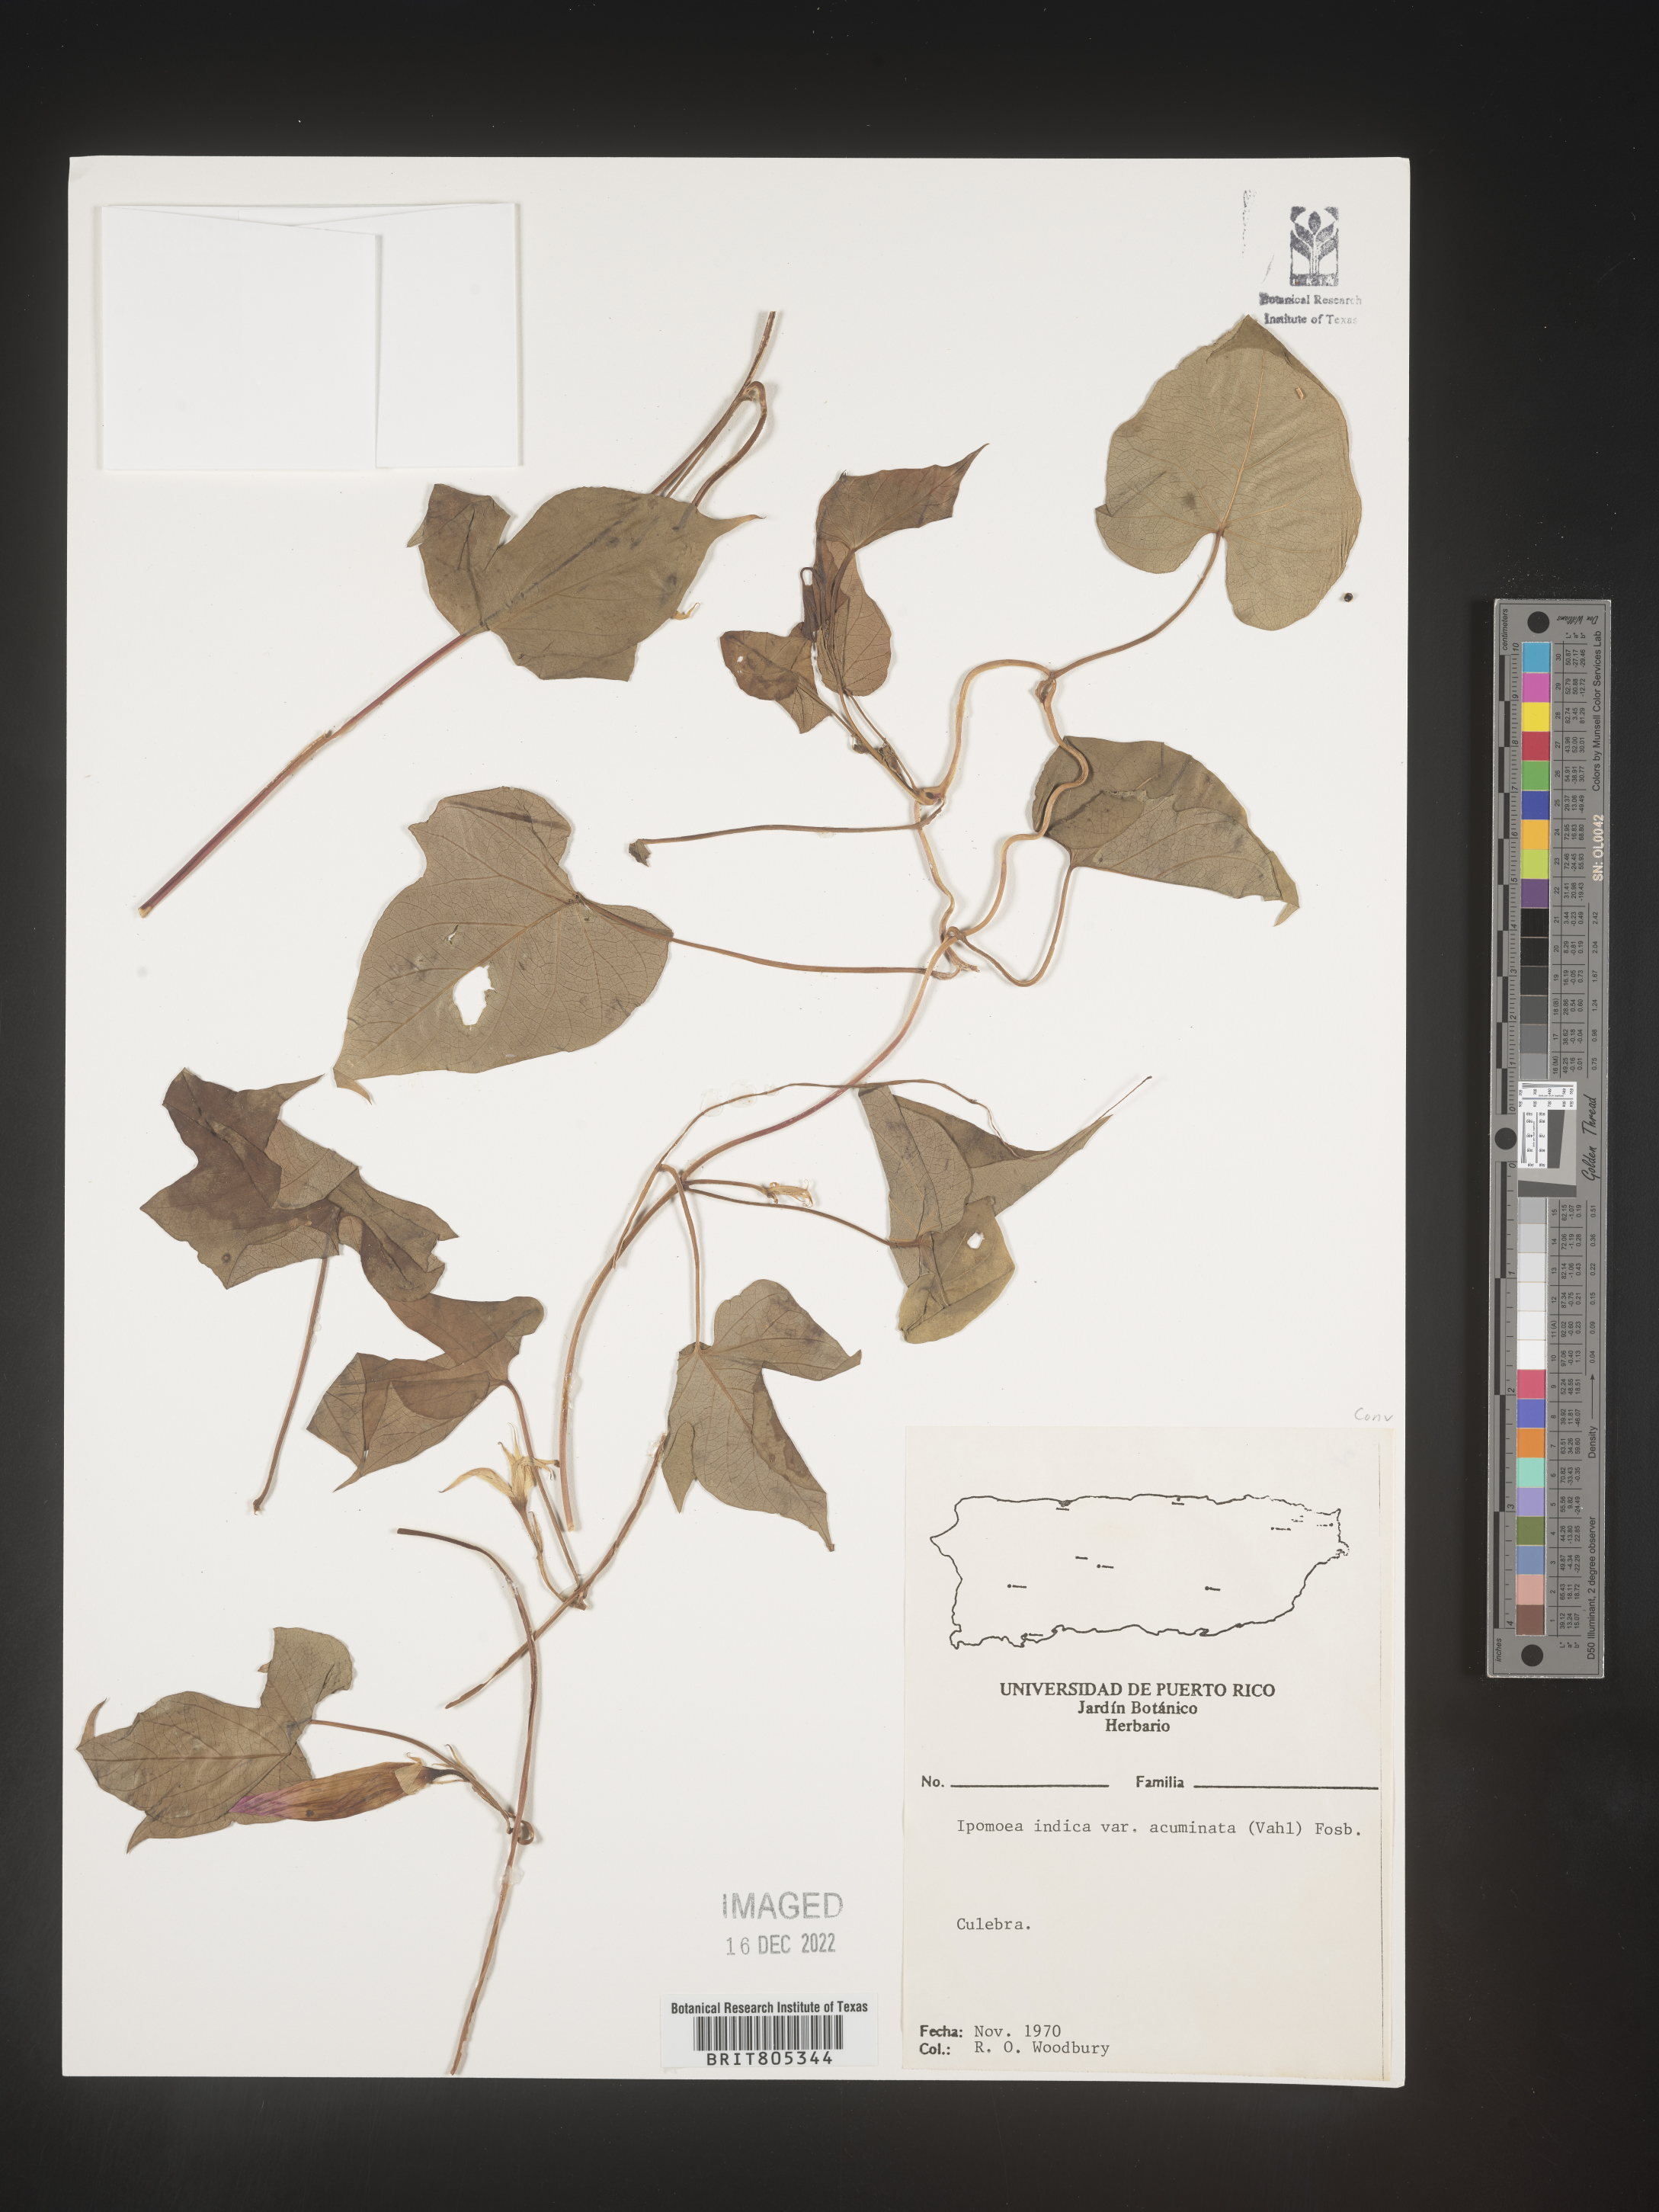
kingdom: Plantae
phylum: Tracheophyta
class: Magnoliopsida
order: Solanales
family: Convolvulaceae
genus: Ipomoea
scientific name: Ipomoea
